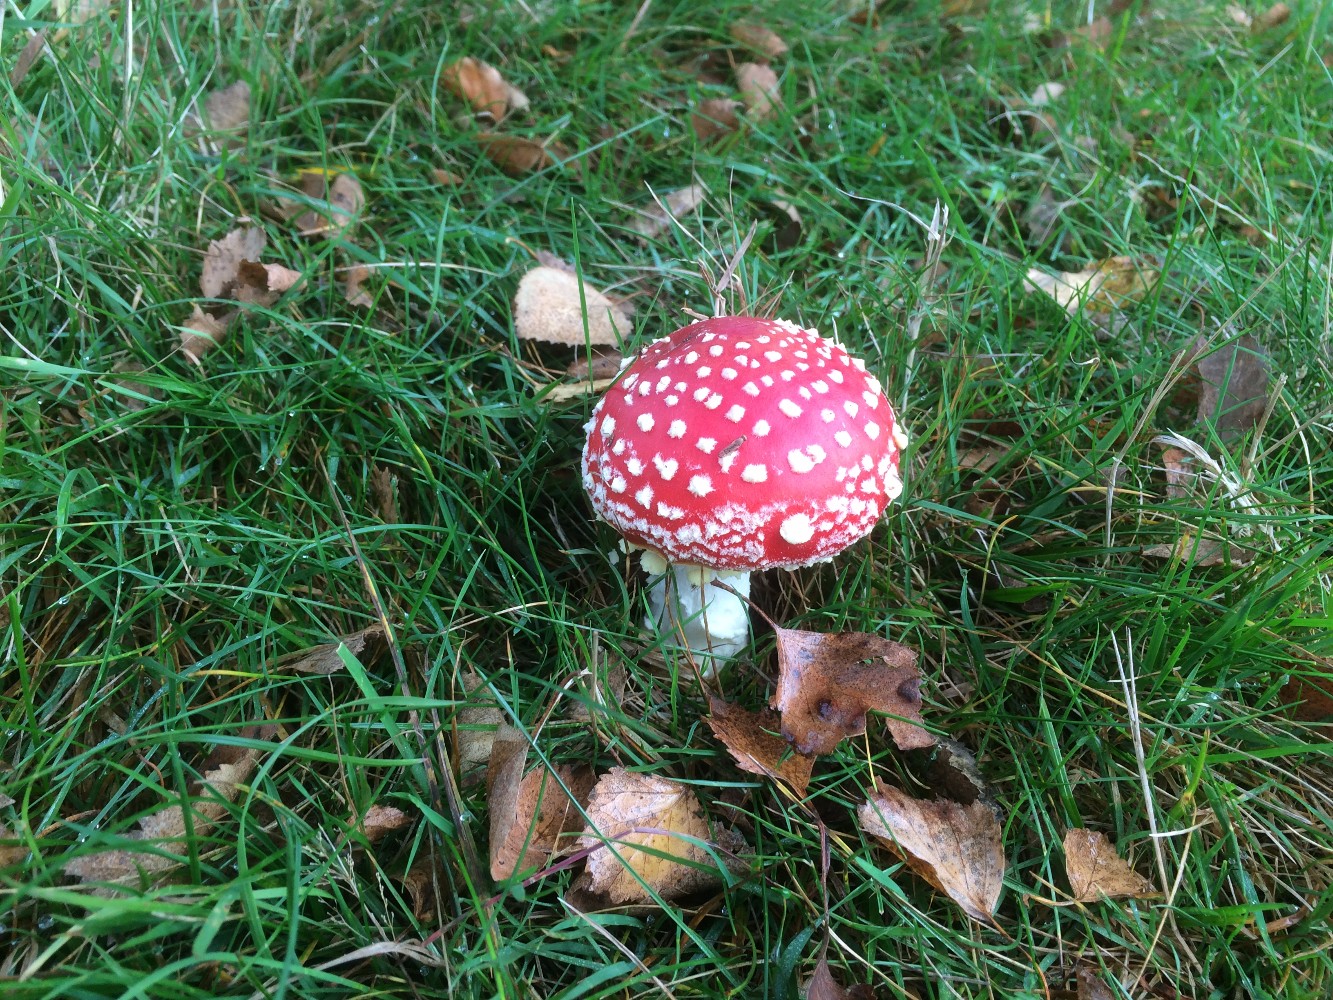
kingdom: Fungi
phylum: Basidiomycota
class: Agaricomycetes
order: Agaricales
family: Amanitaceae
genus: Amanita
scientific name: Amanita muscaria
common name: rød fluesvamp
